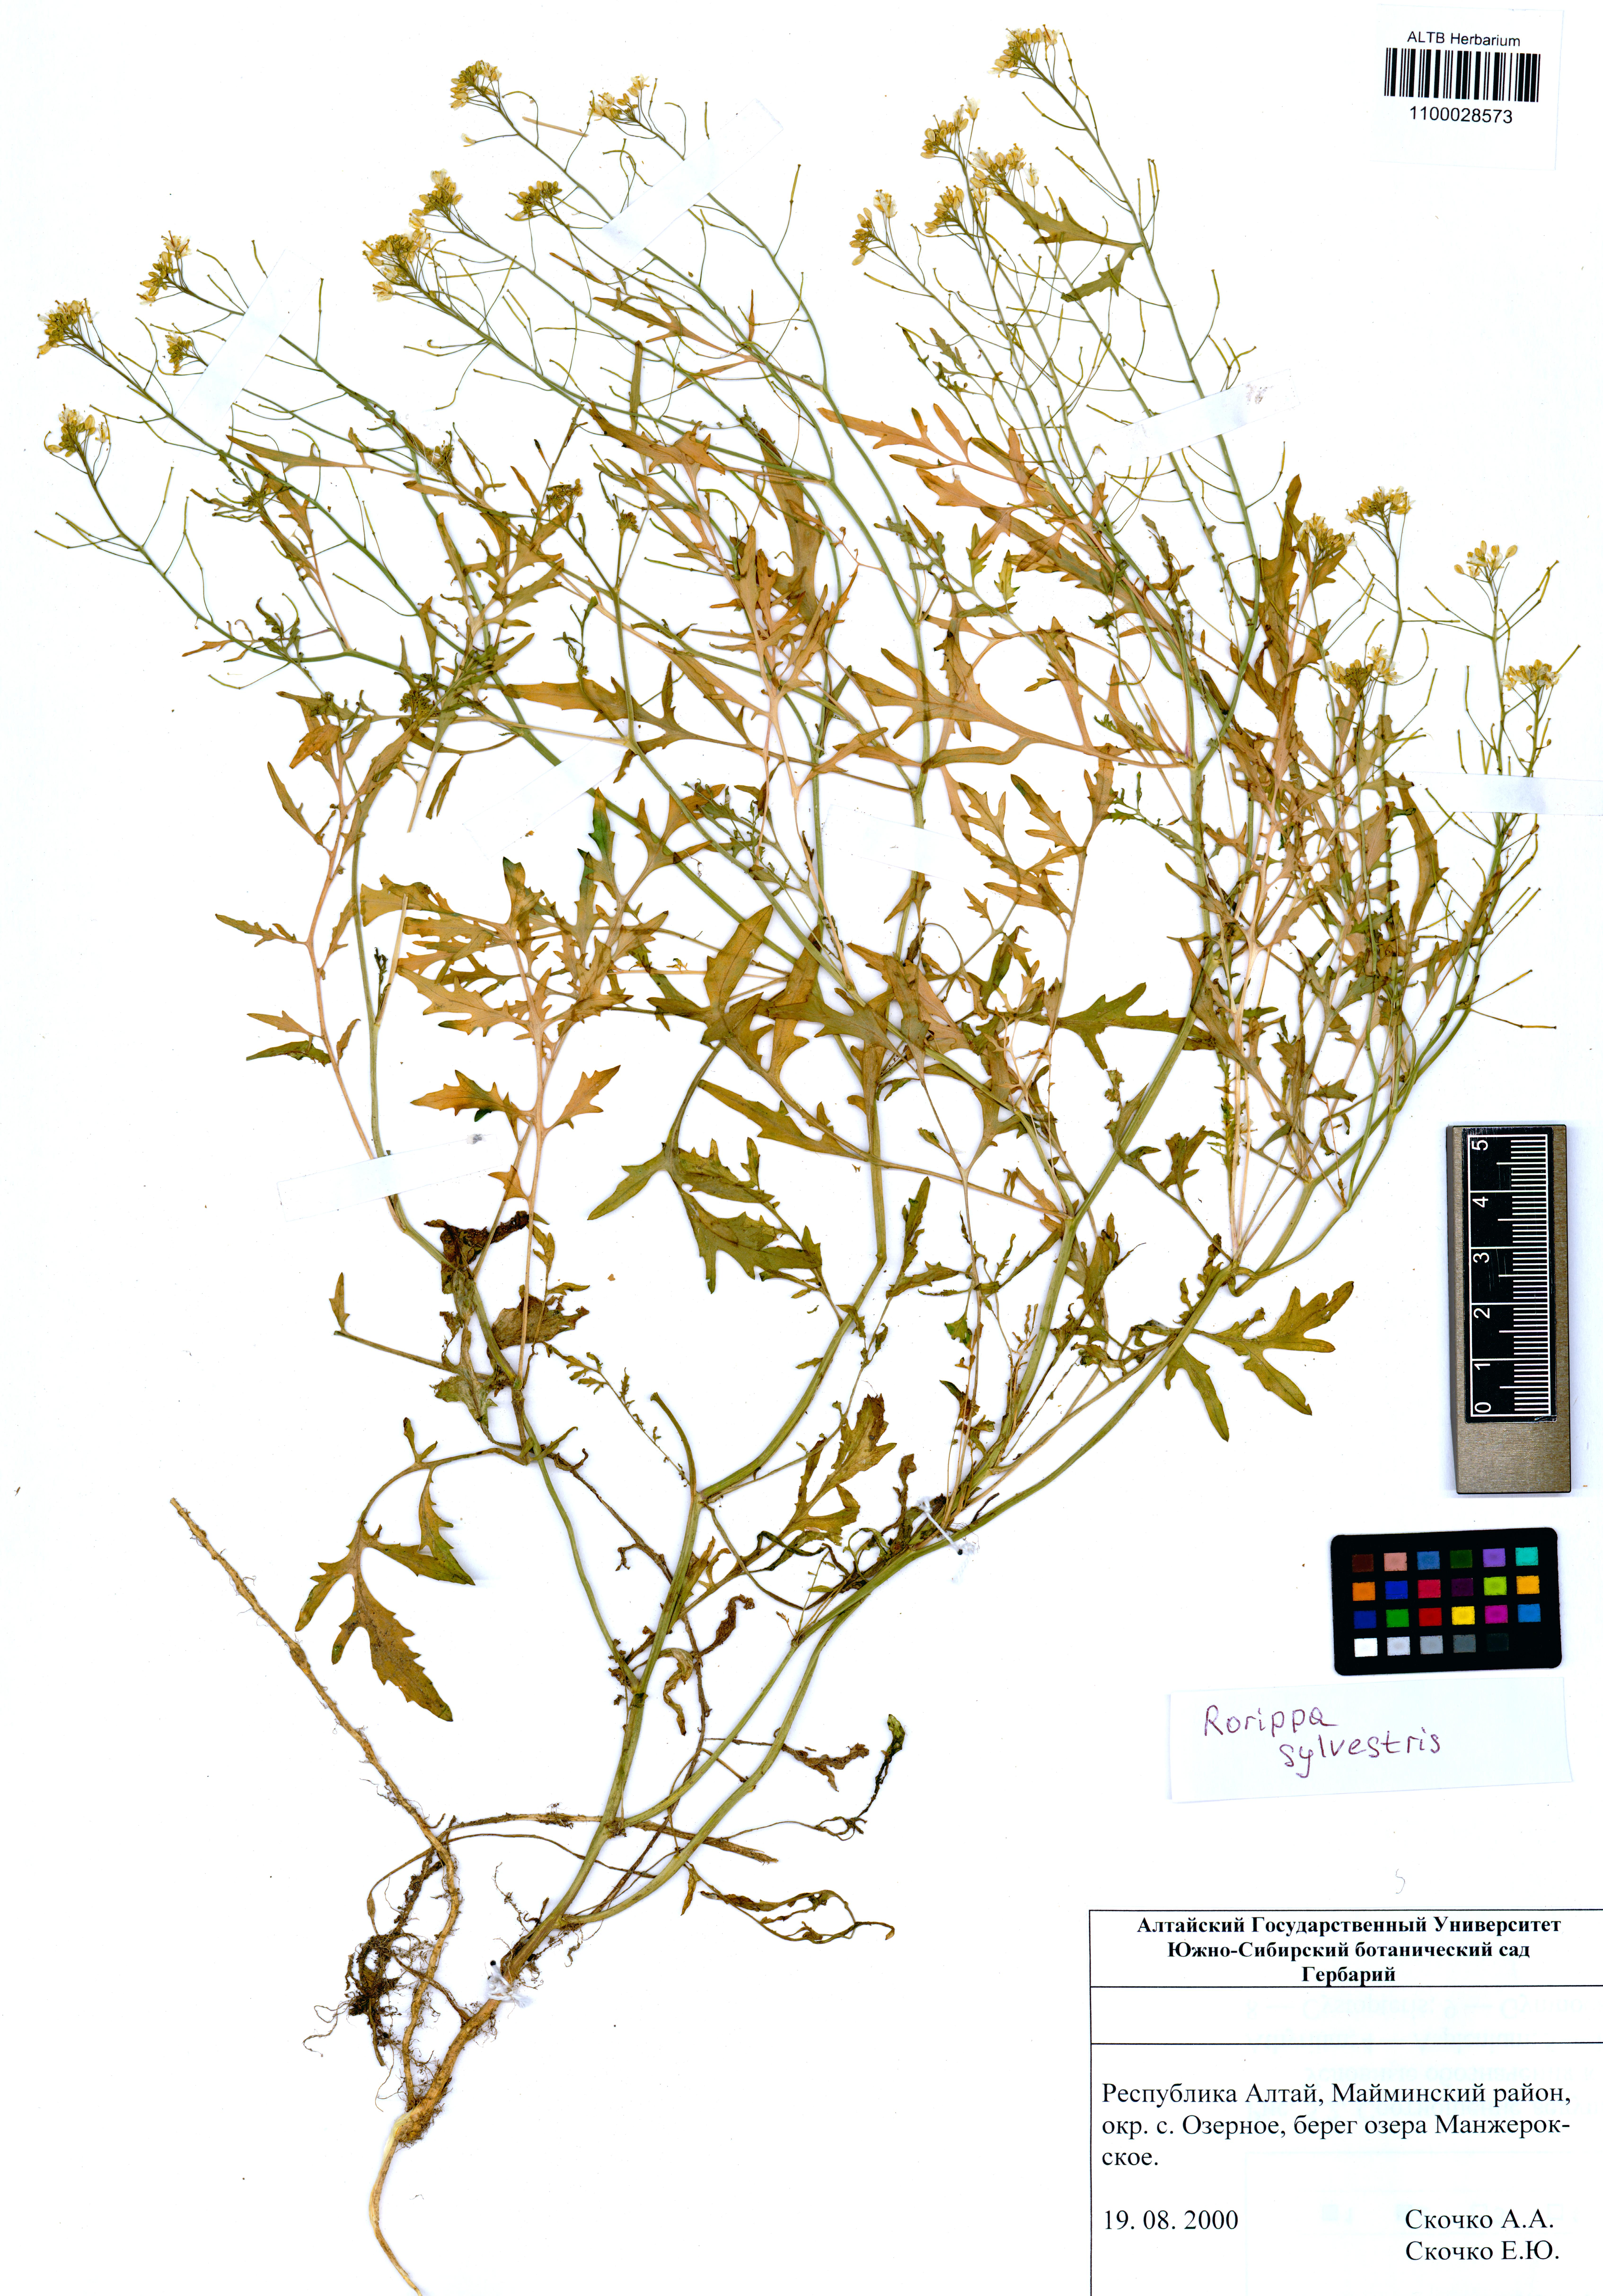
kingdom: Plantae
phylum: Tracheophyta
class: Magnoliopsida
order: Brassicales
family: Brassicaceae
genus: Rorippa
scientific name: Rorippa sylvestris
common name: Creeping yellowcress
